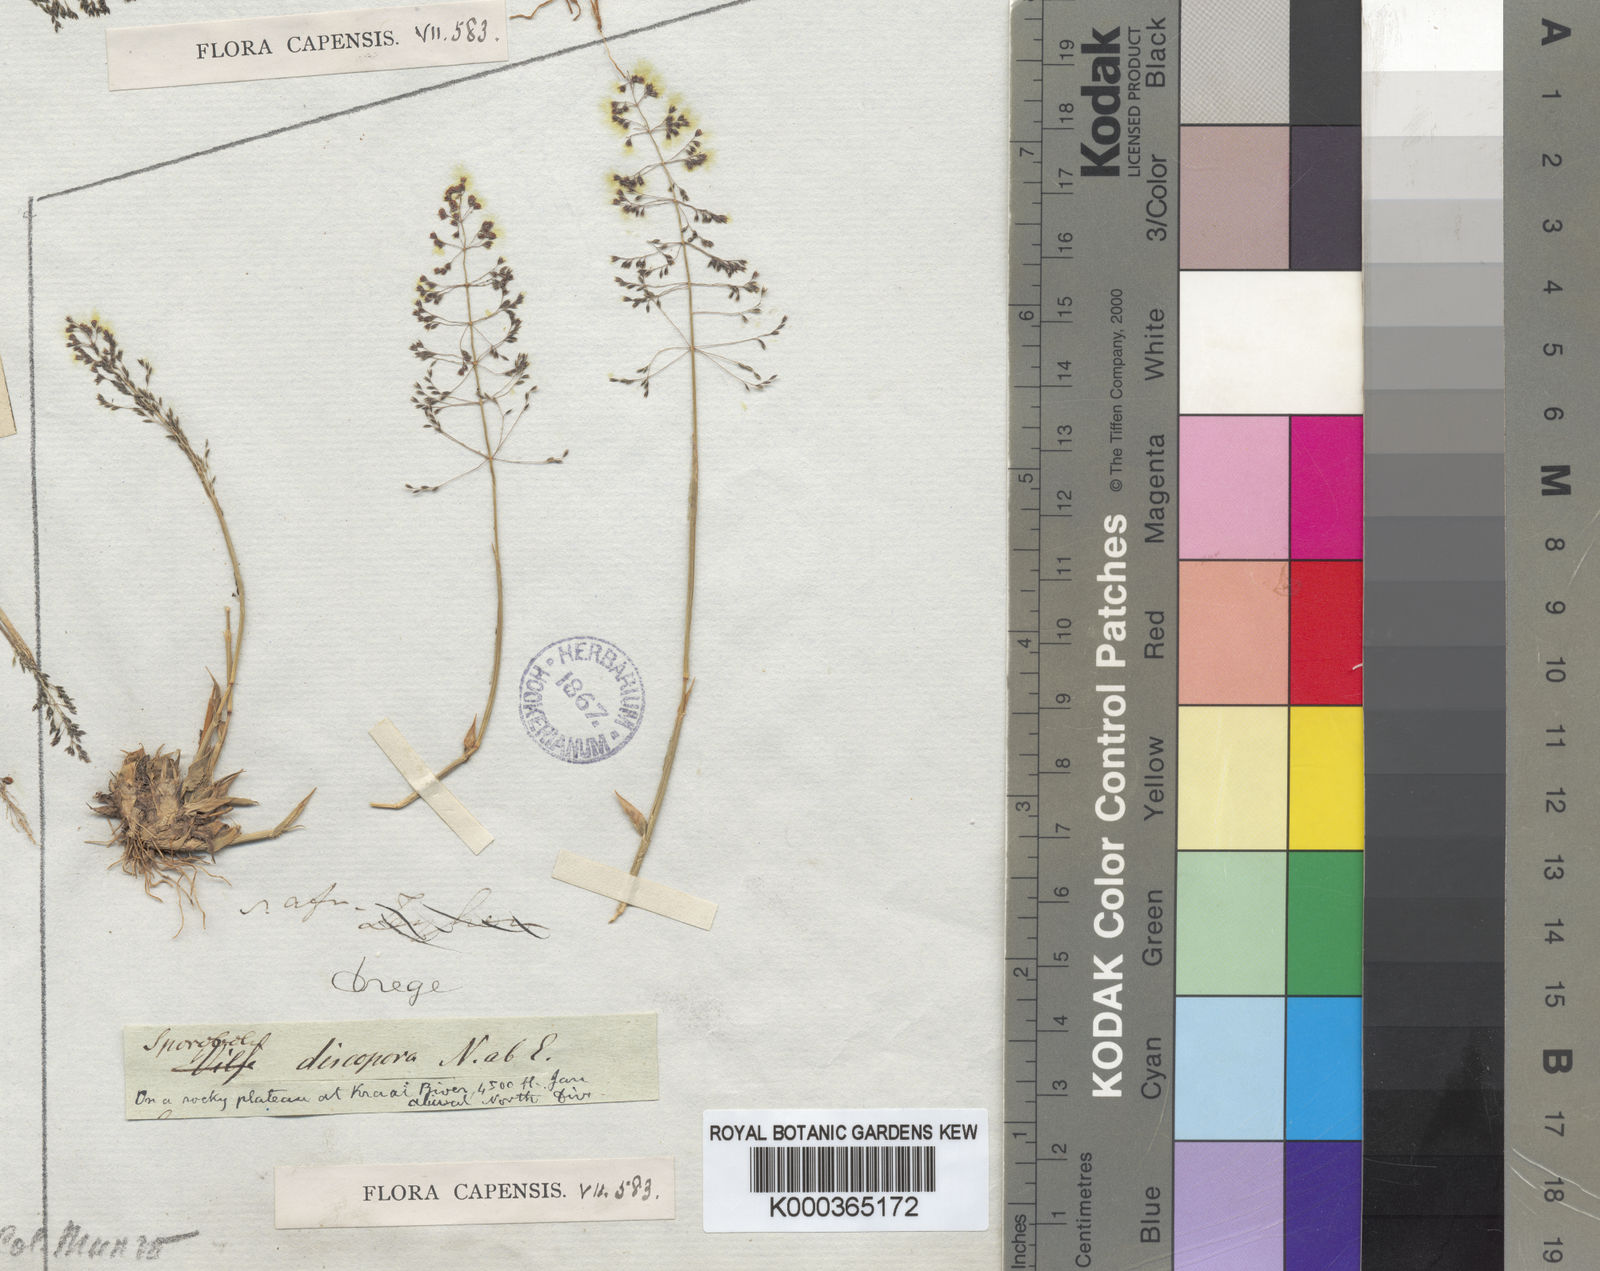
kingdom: Plantae
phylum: Tracheophyta
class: Liliopsida
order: Poales
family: Poaceae
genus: Sporobolus
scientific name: Sporobolus discosporus
